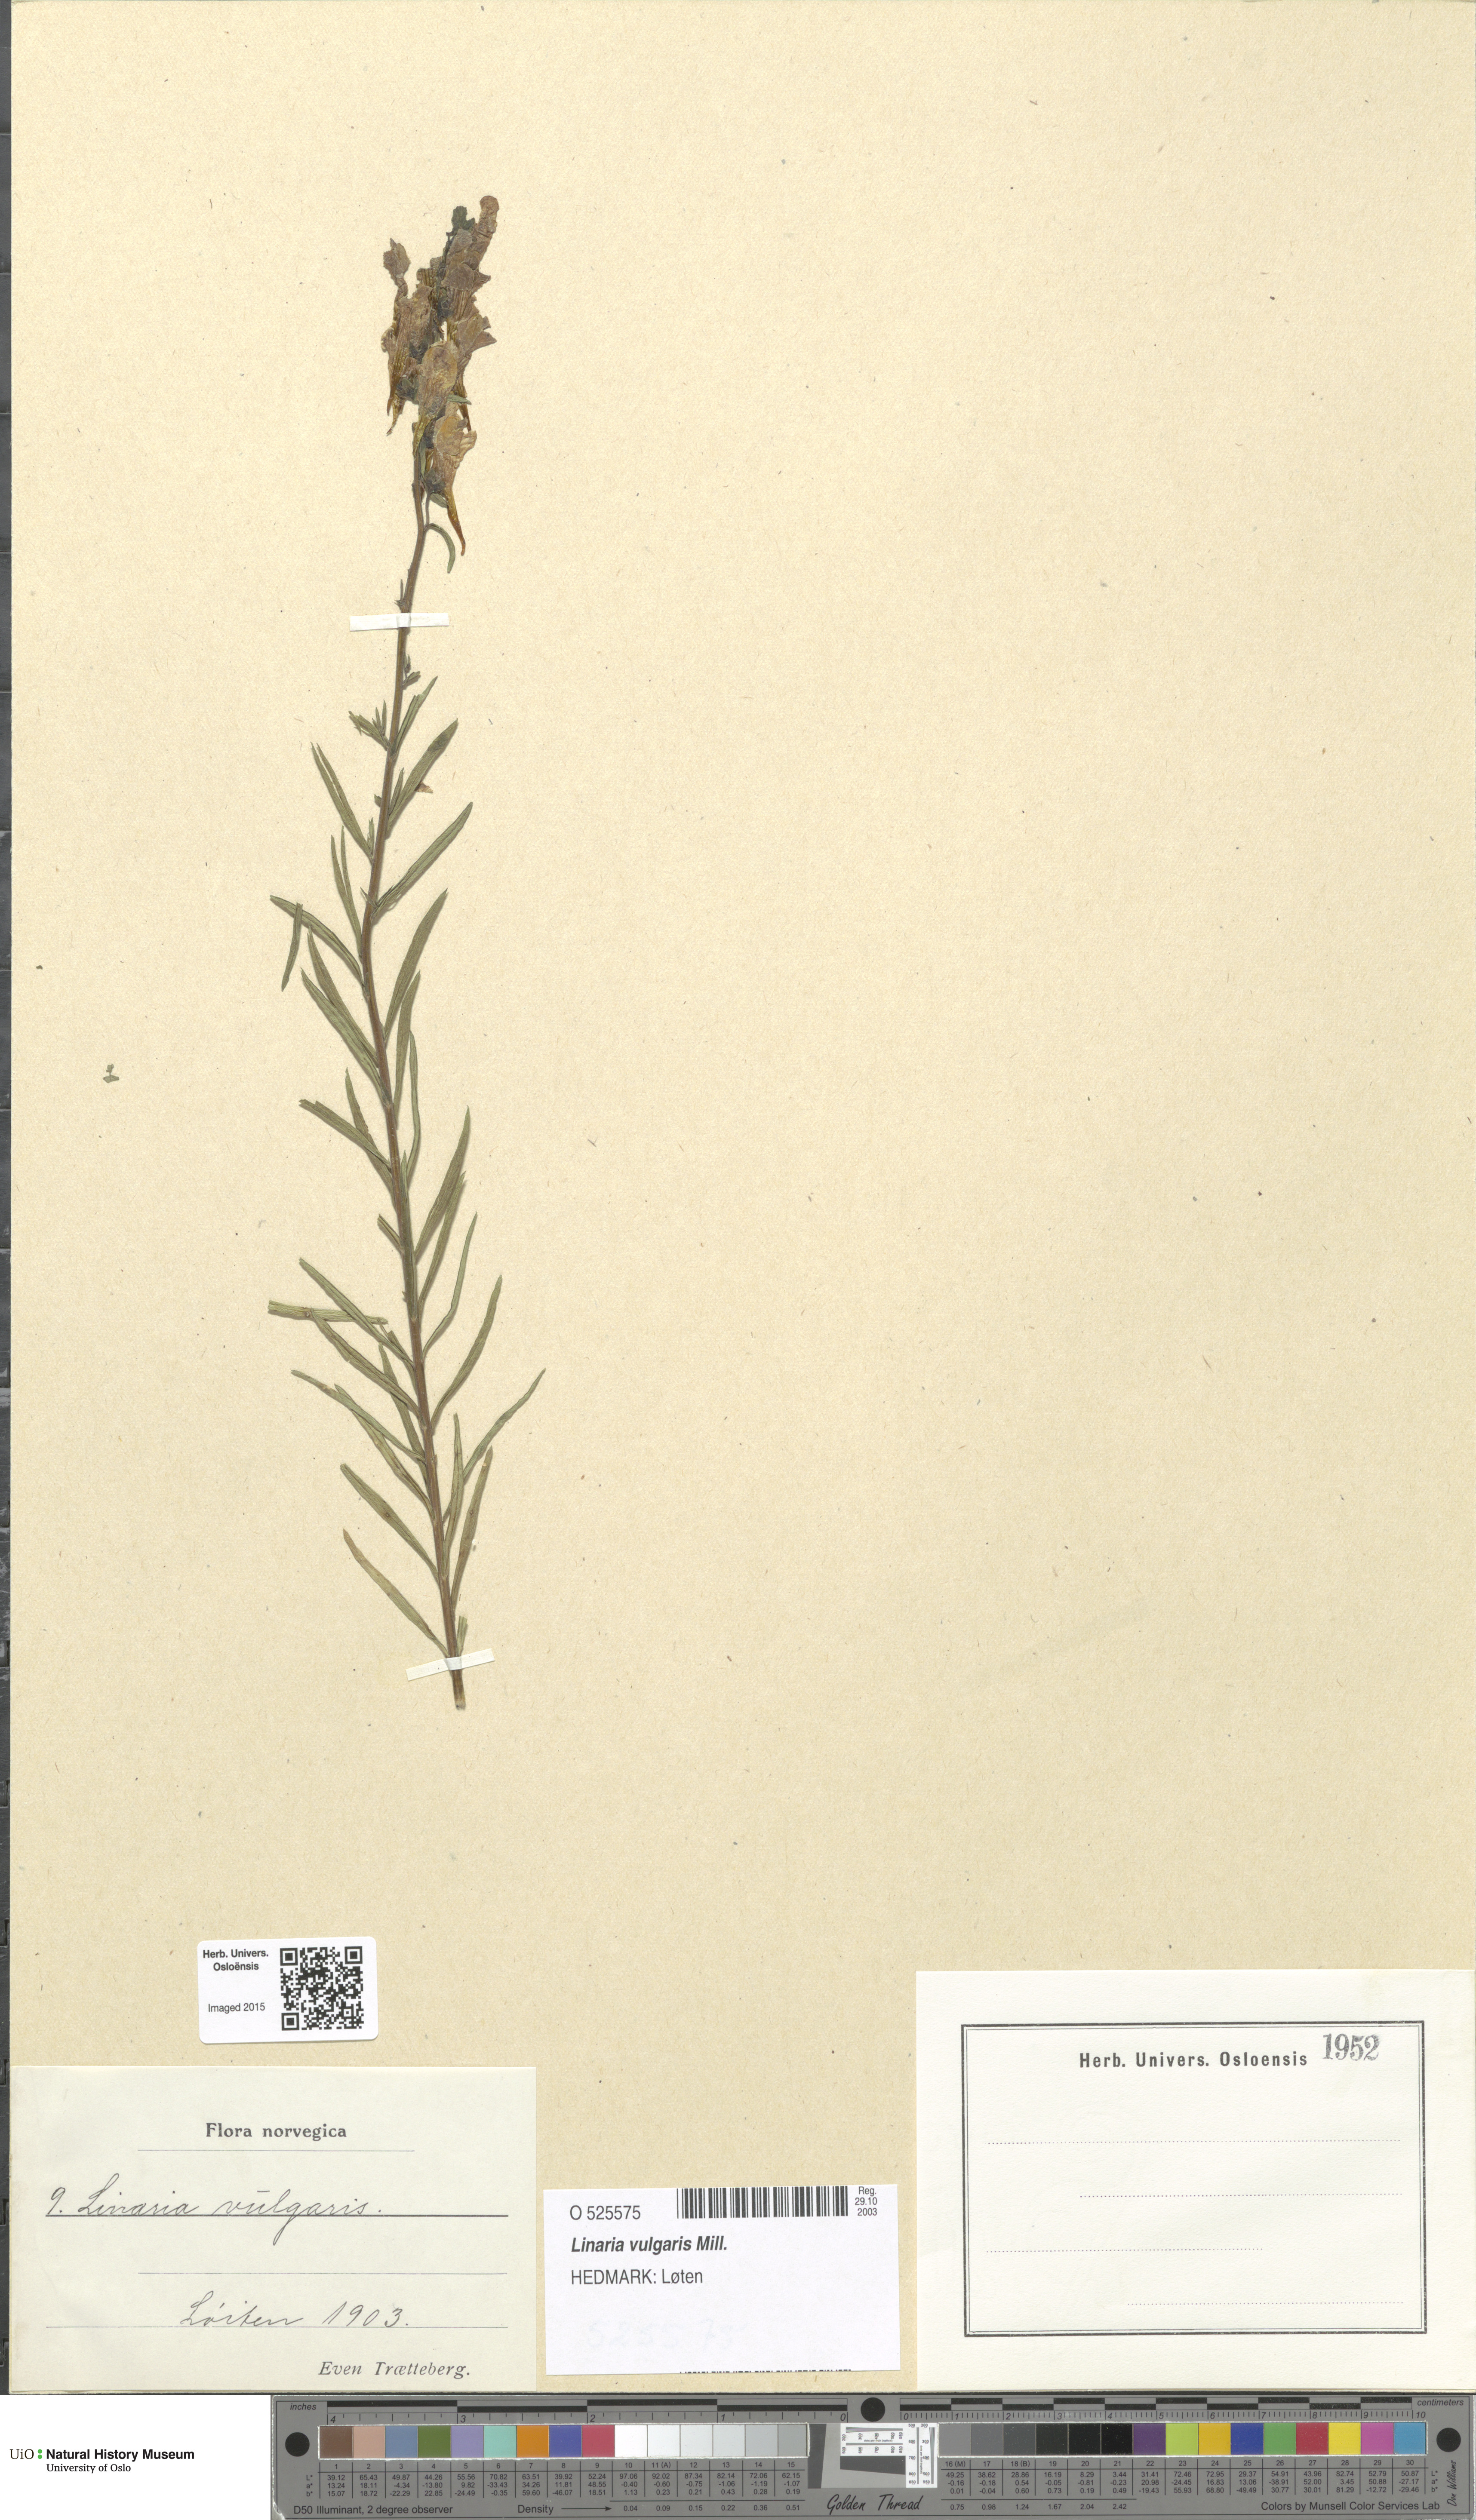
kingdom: Plantae
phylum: Tracheophyta
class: Magnoliopsida
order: Lamiales
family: Plantaginaceae
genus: Linaria
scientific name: Linaria vulgaris
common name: Butter and eggs
